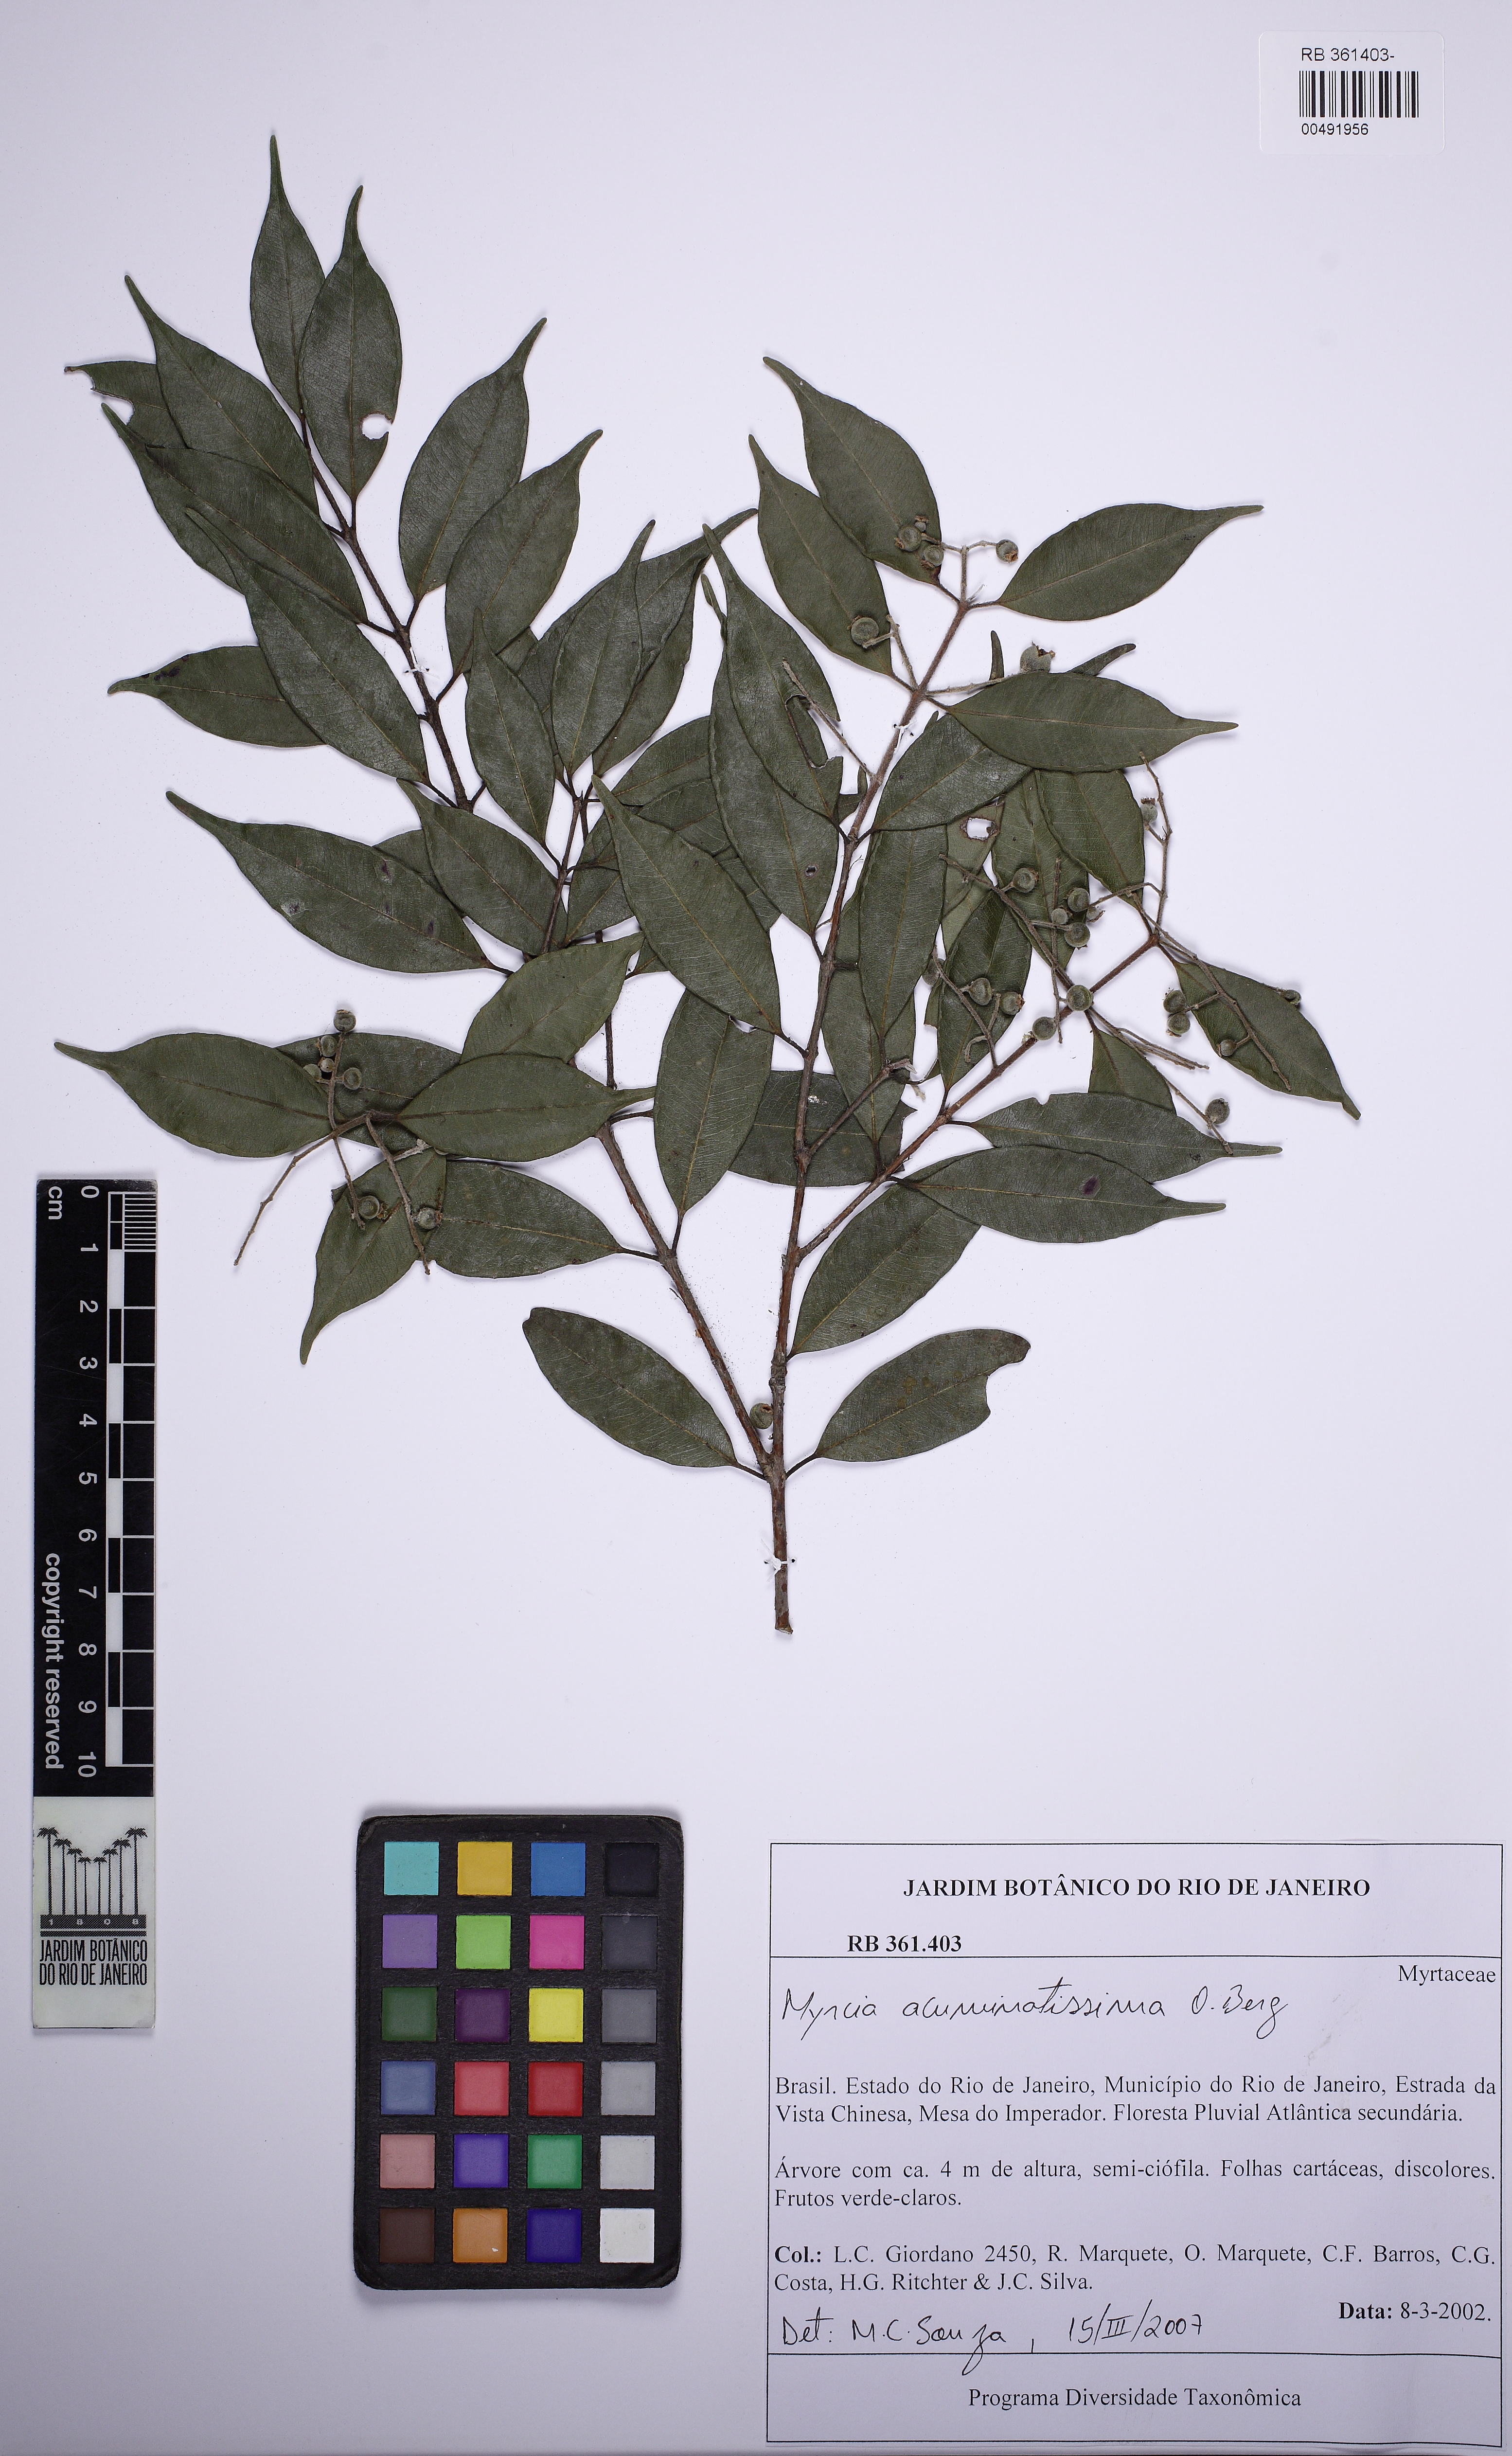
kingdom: Plantae
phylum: Tracheophyta
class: Magnoliopsida
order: Myrtales
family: Myrtaceae
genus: Myrcia
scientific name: Myrcia racemosa
